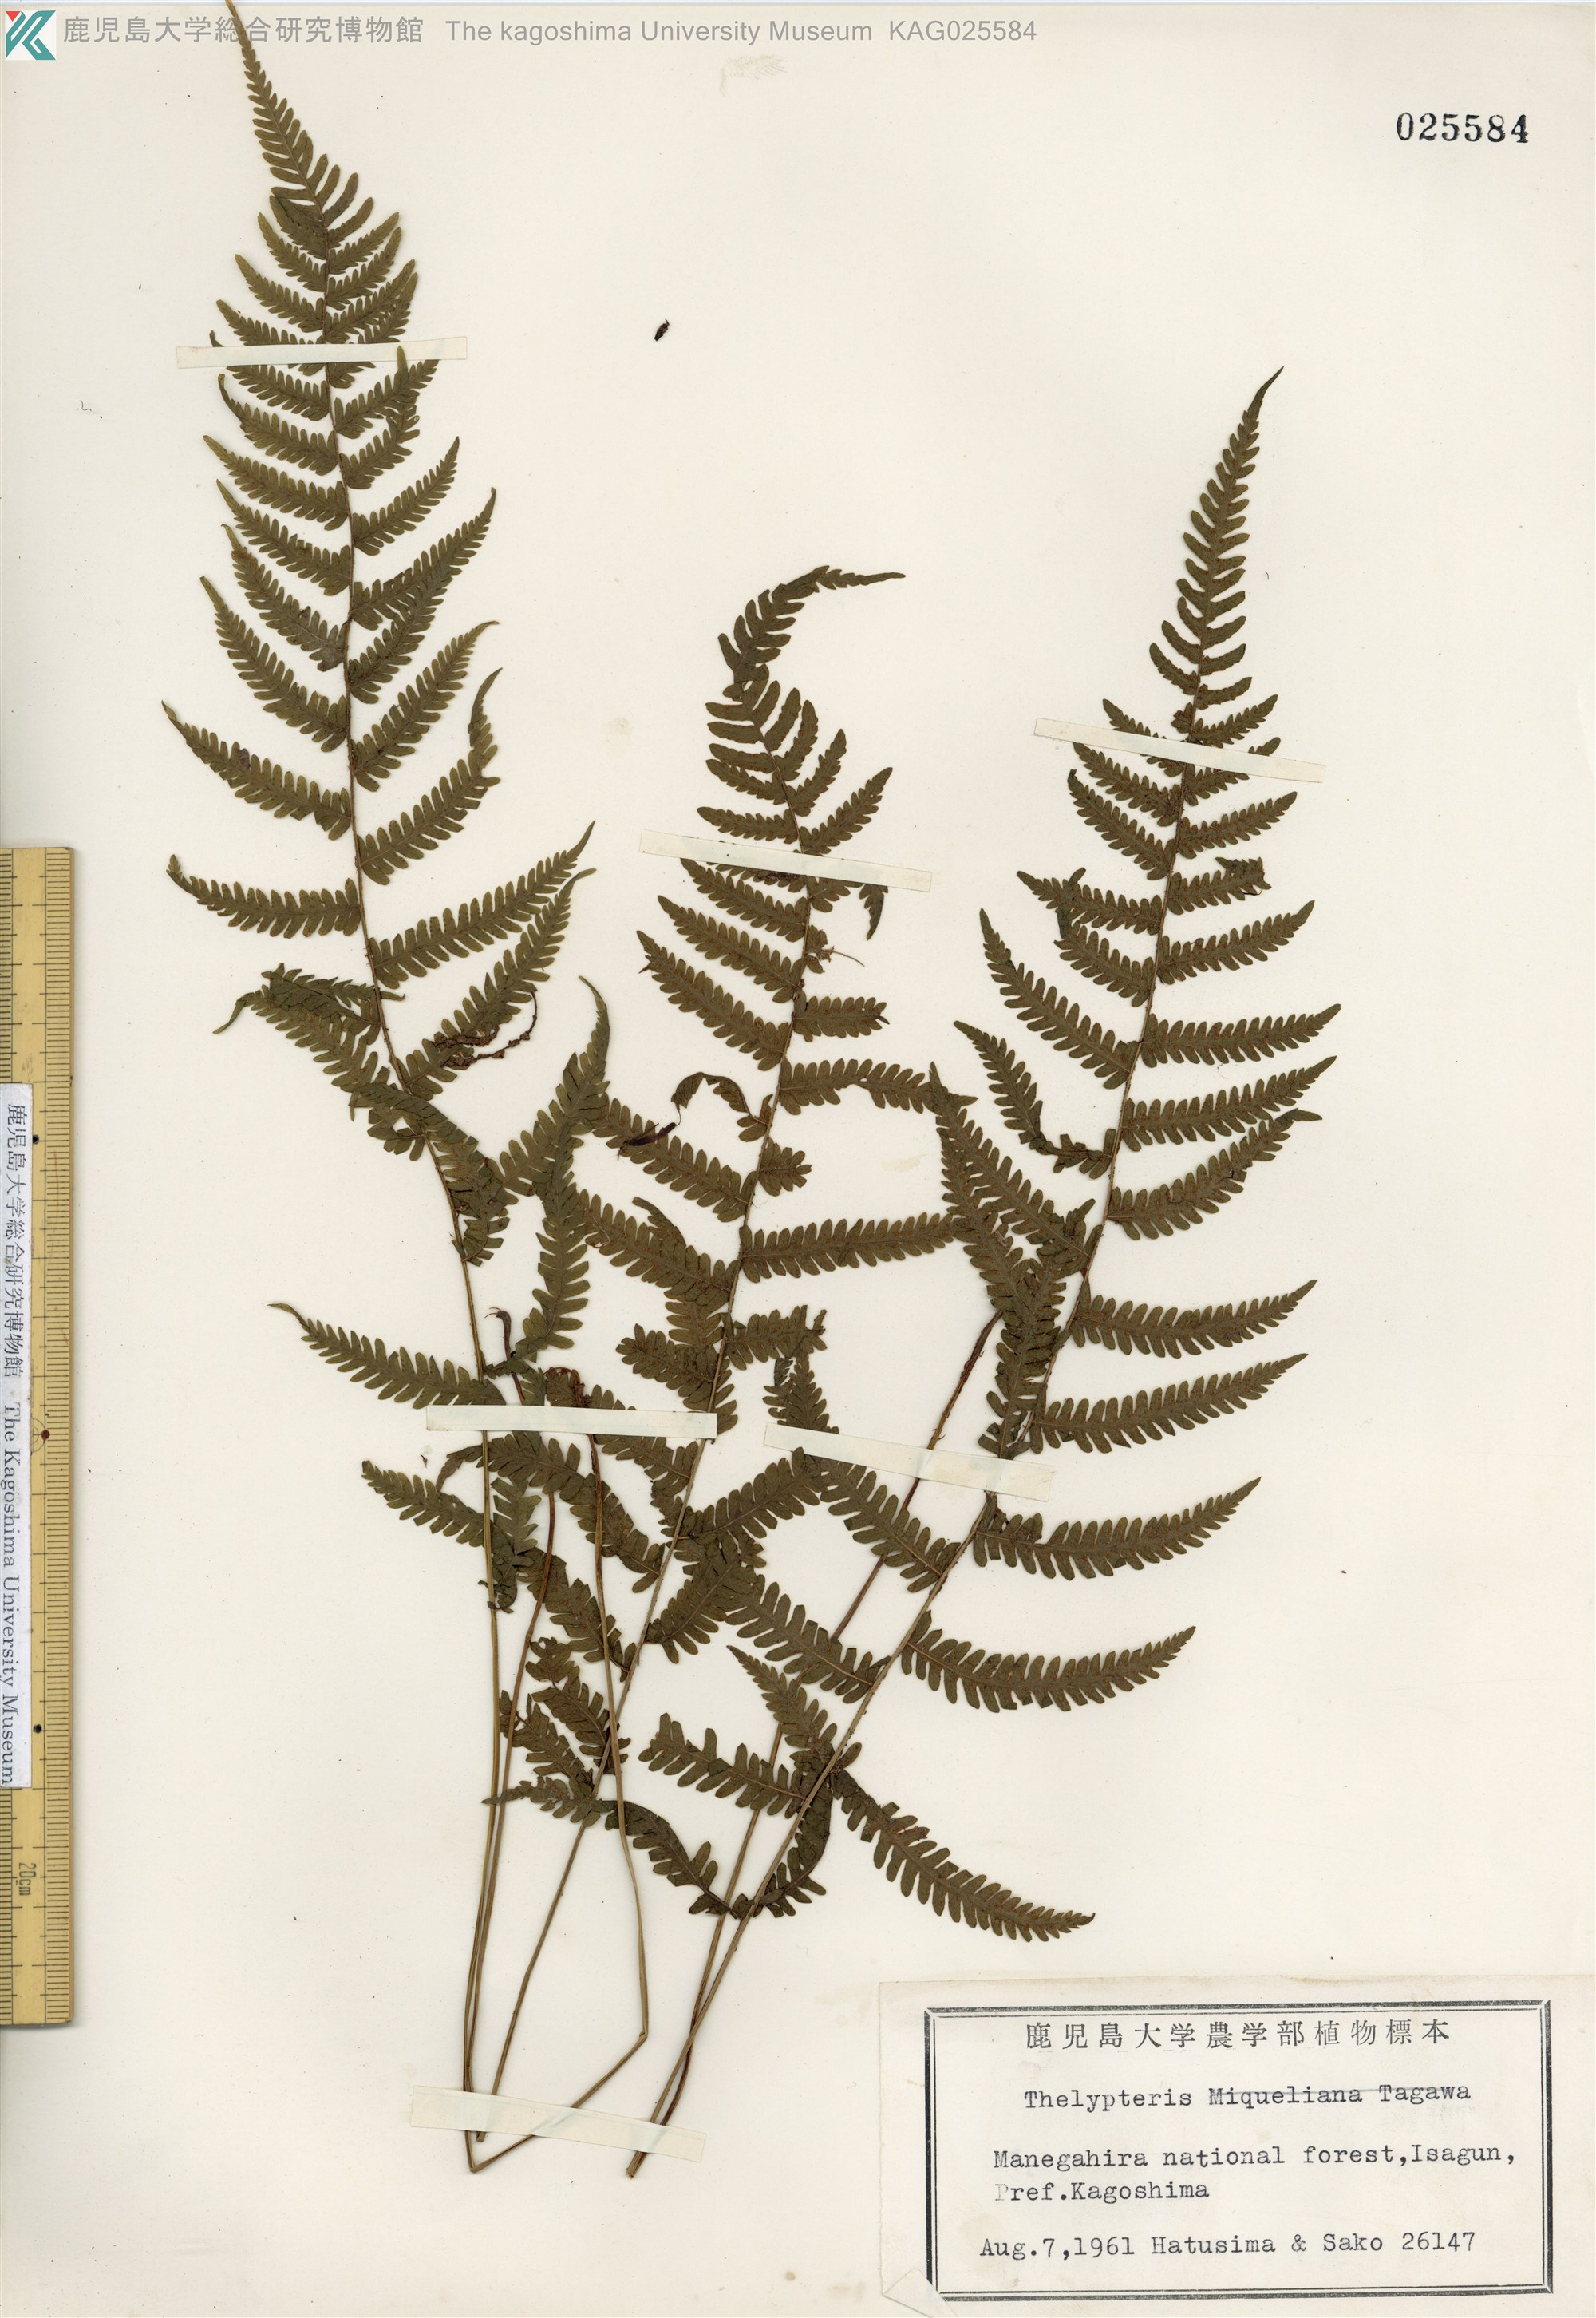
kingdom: Plantae
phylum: Tracheophyta
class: Polypodiopsida
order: Polypodiales
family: Thelypteridaceae
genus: Amauropelta
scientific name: Amauropelta glanduligera
